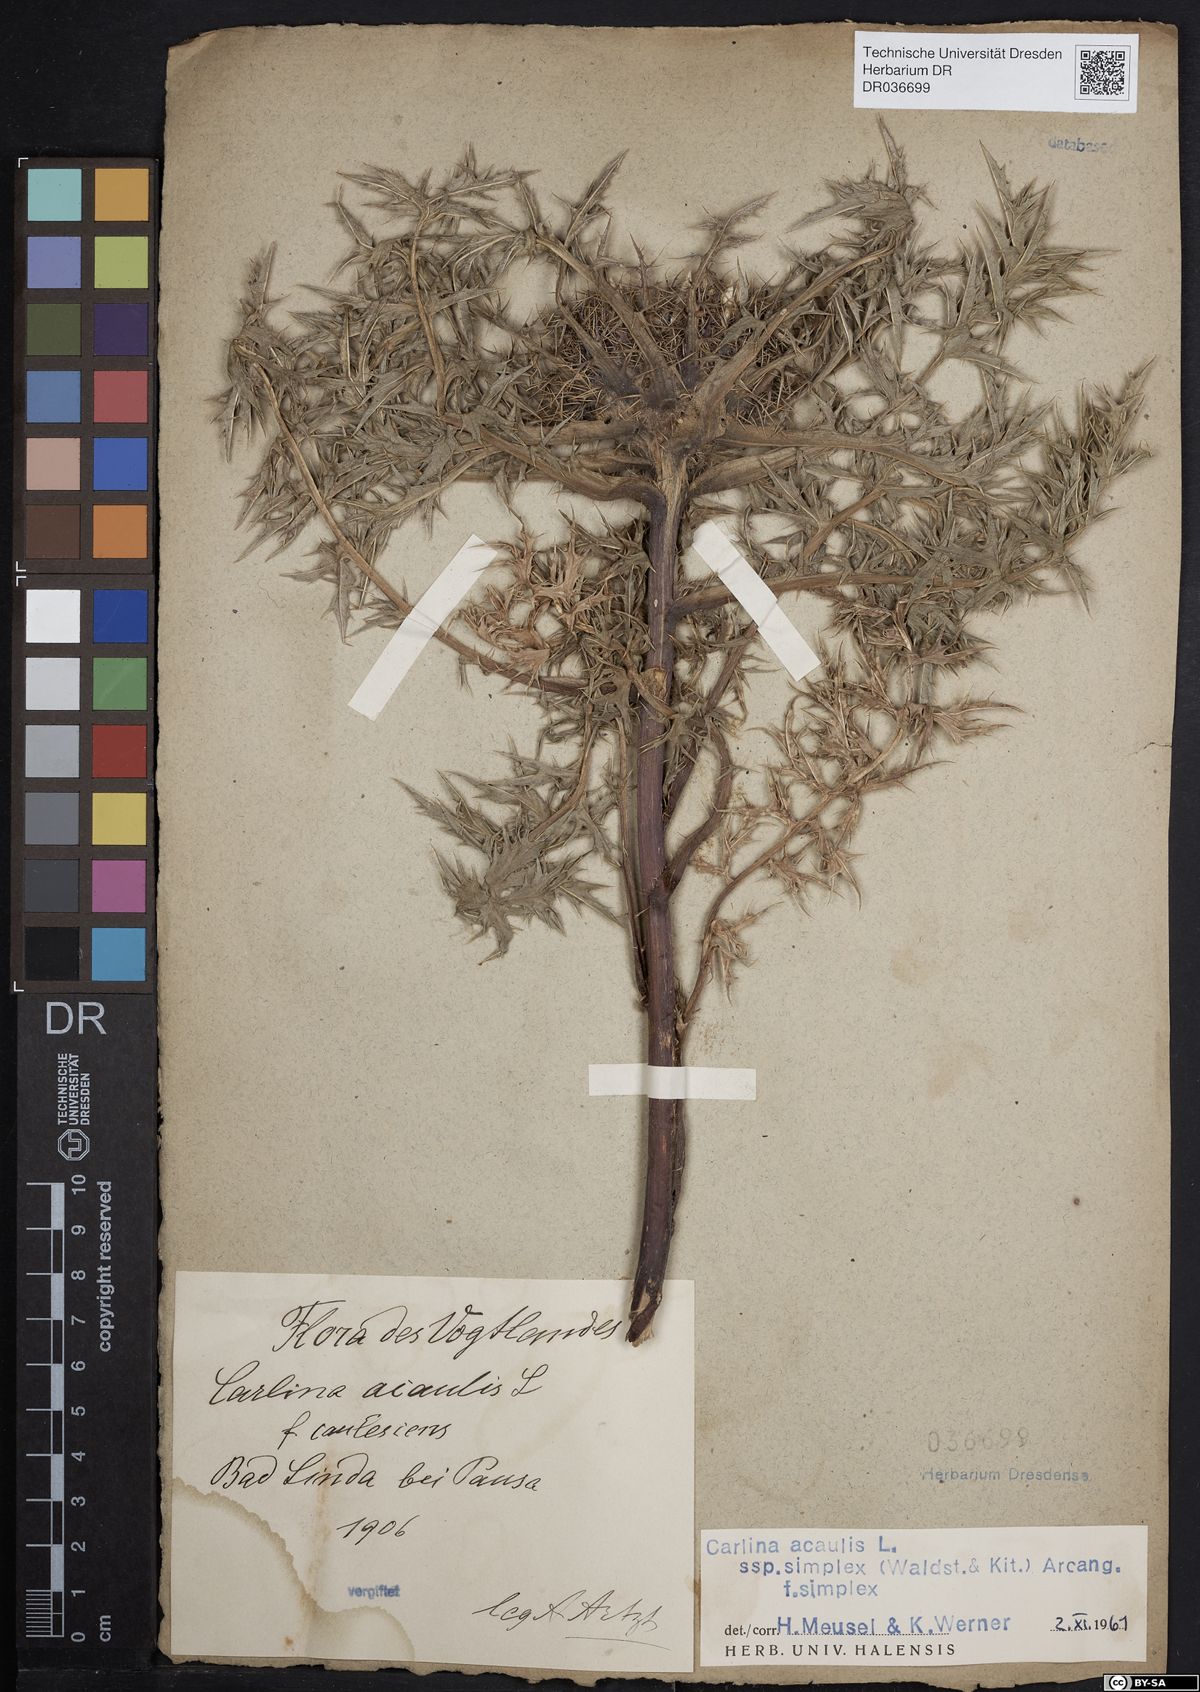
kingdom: Plantae
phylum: Tracheophyta
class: Magnoliopsida
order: Asterales
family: Asteraceae
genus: Carlina
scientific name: Carlina acaulis
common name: Stemless carline thistle
